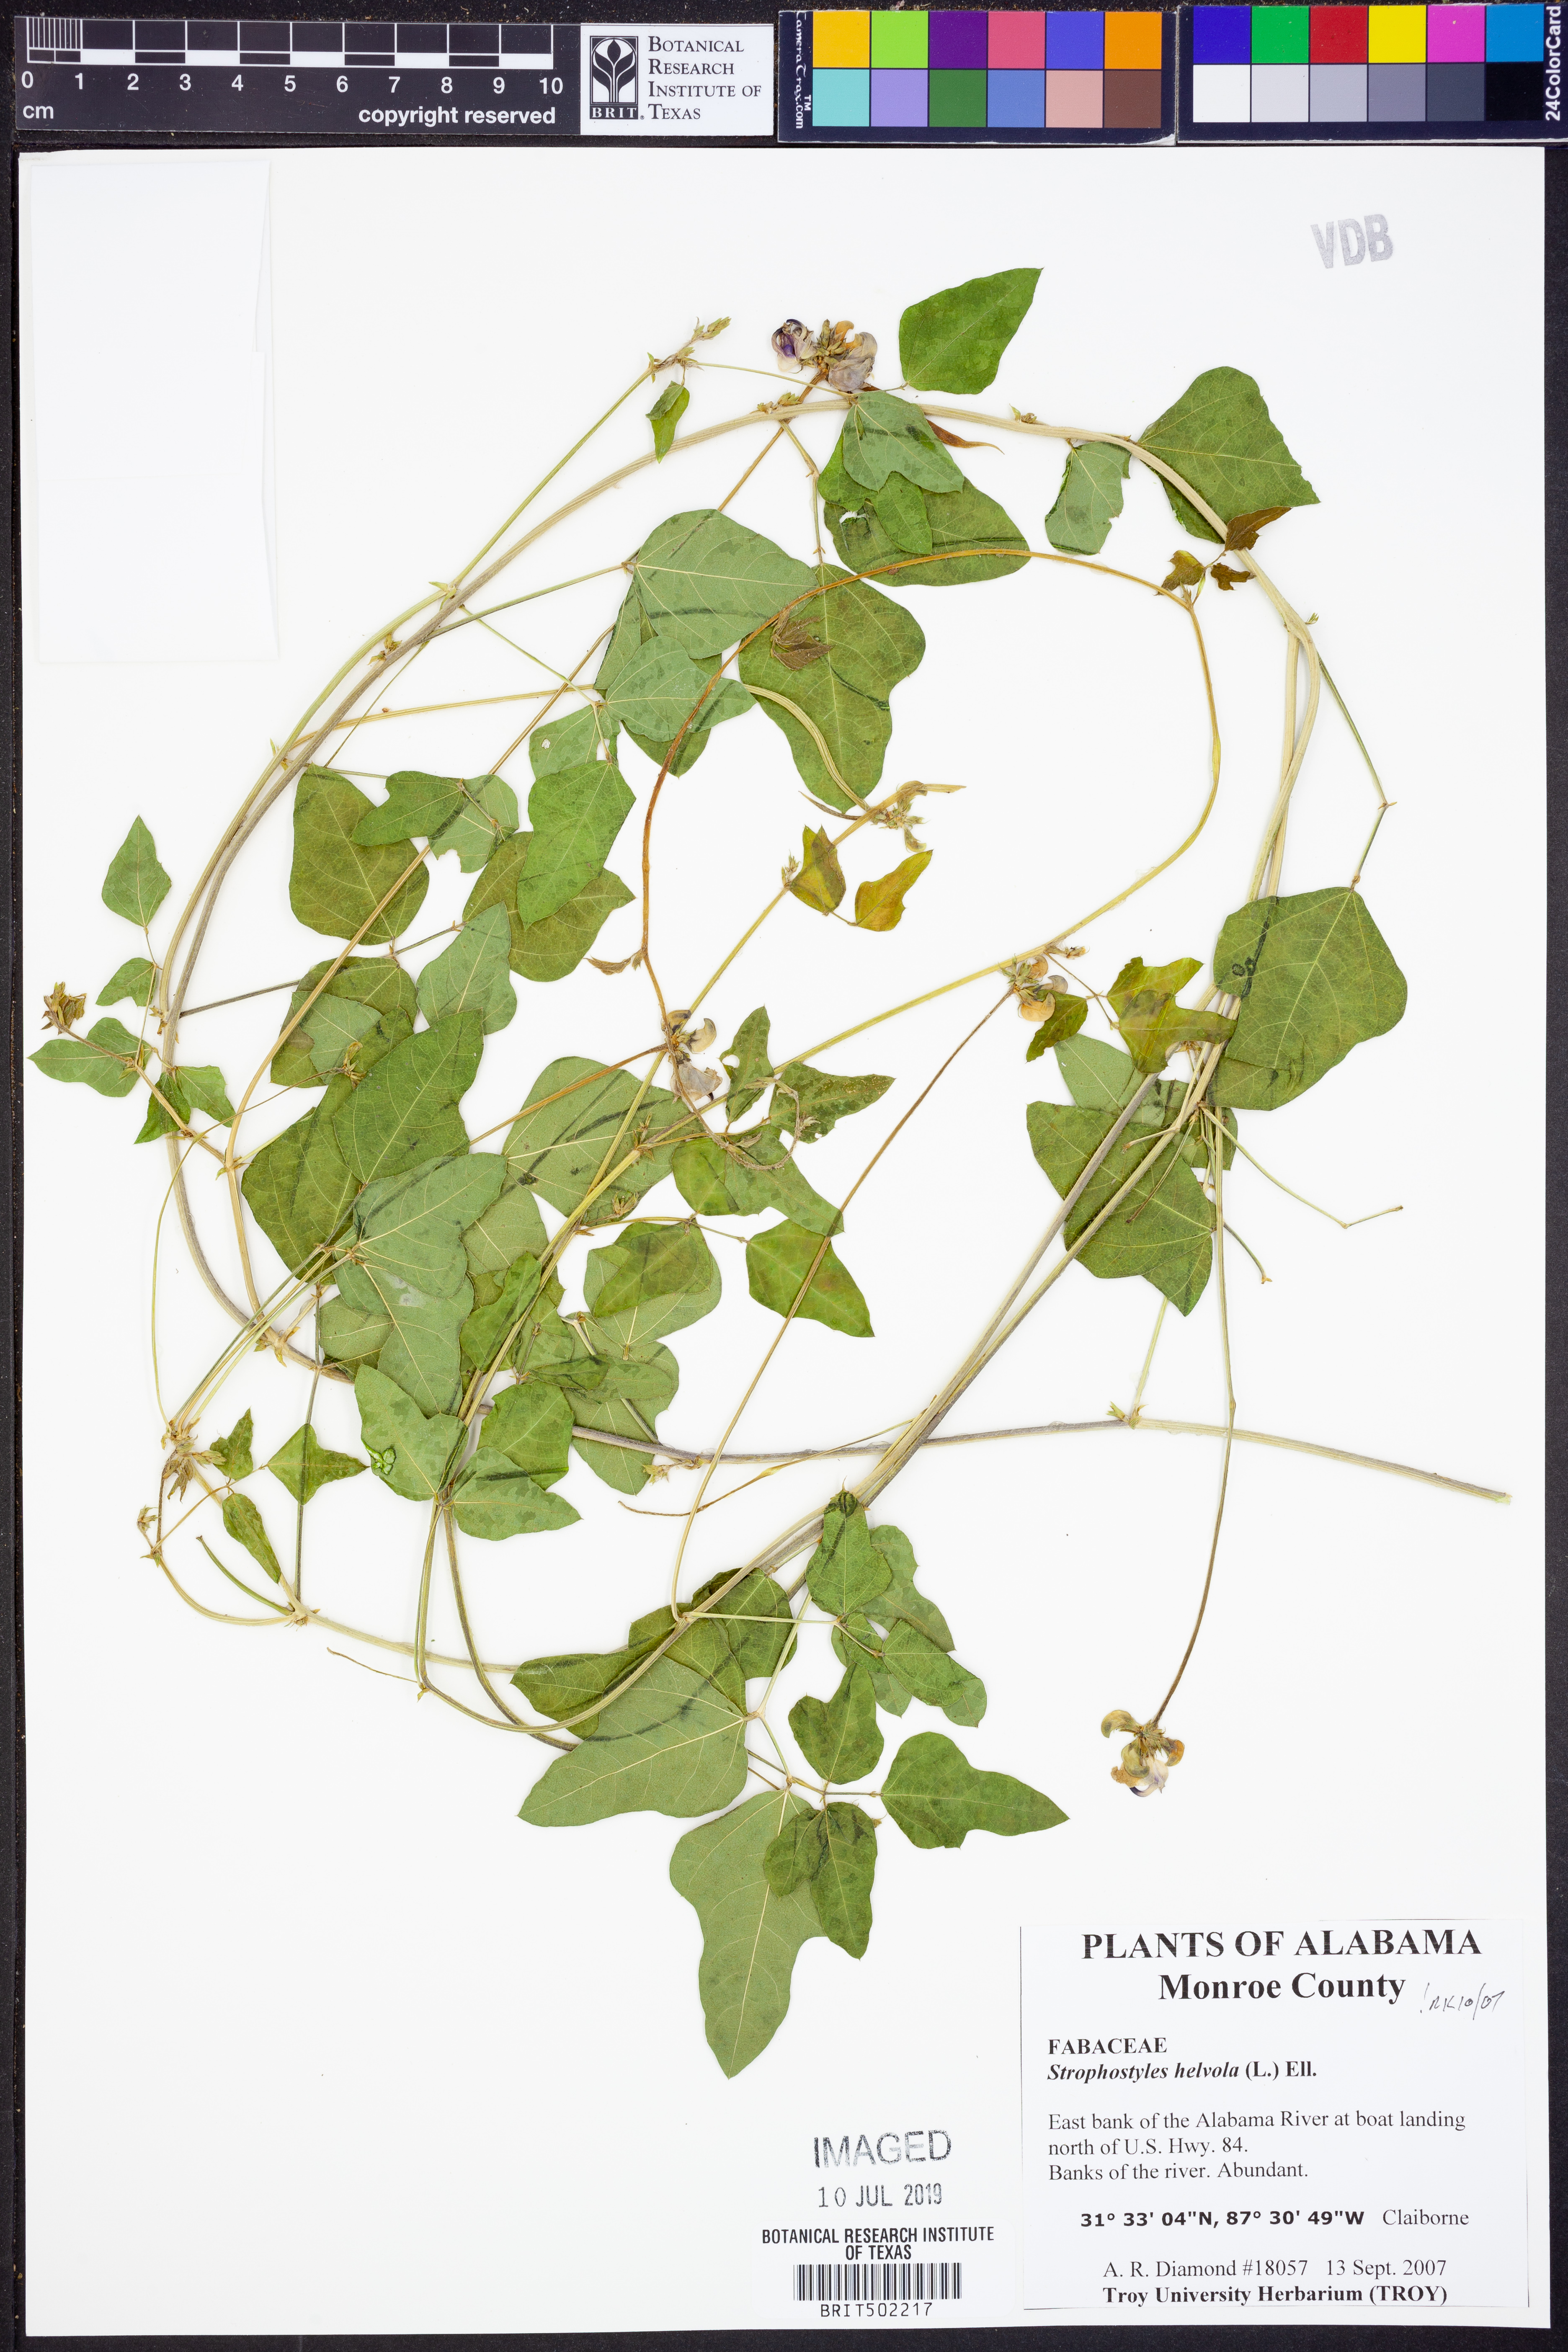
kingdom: Plantae
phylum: Tracheophyta
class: Magnoliopsida
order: Fabales
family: Fabaceae
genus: Strophostyles
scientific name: Strophostyles helvola
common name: Trailing wild bean
